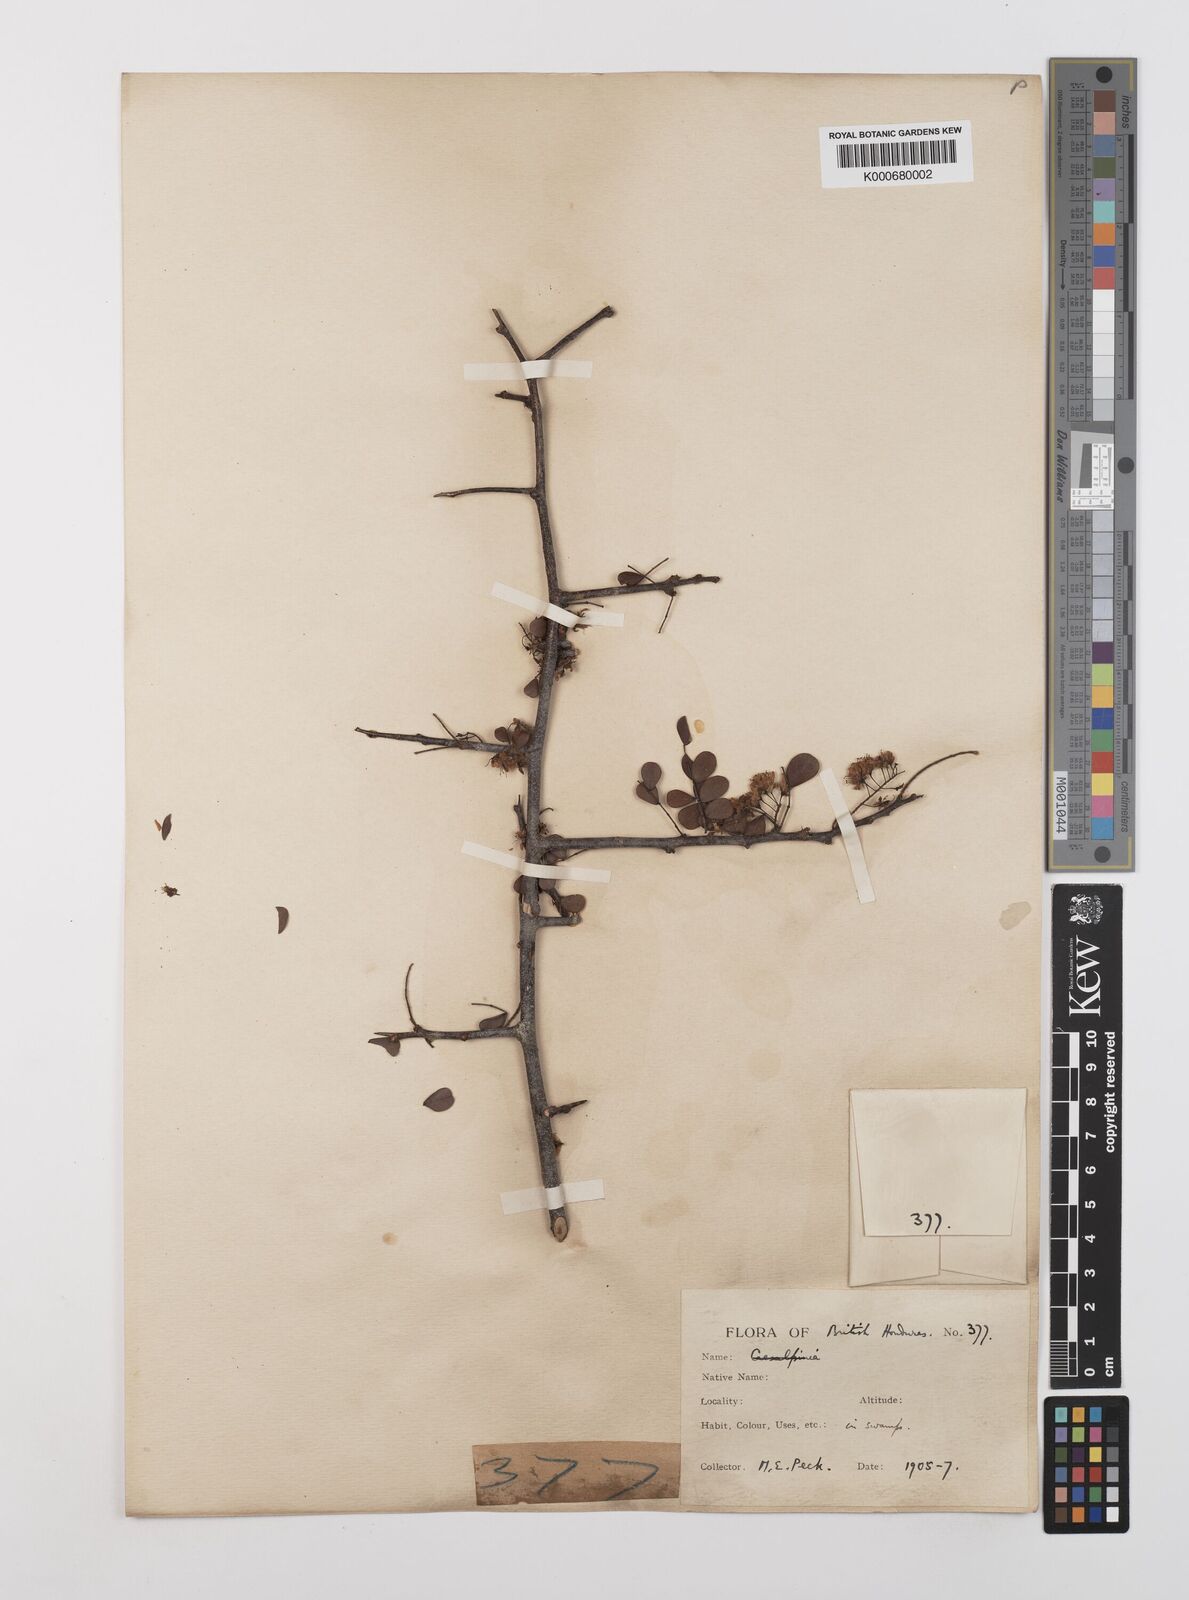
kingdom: Plantae
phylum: Tracheophyta
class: Magnoliopsida
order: Fabales
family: Fabaceae
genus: Haematoxylum
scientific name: Haematoxylum
